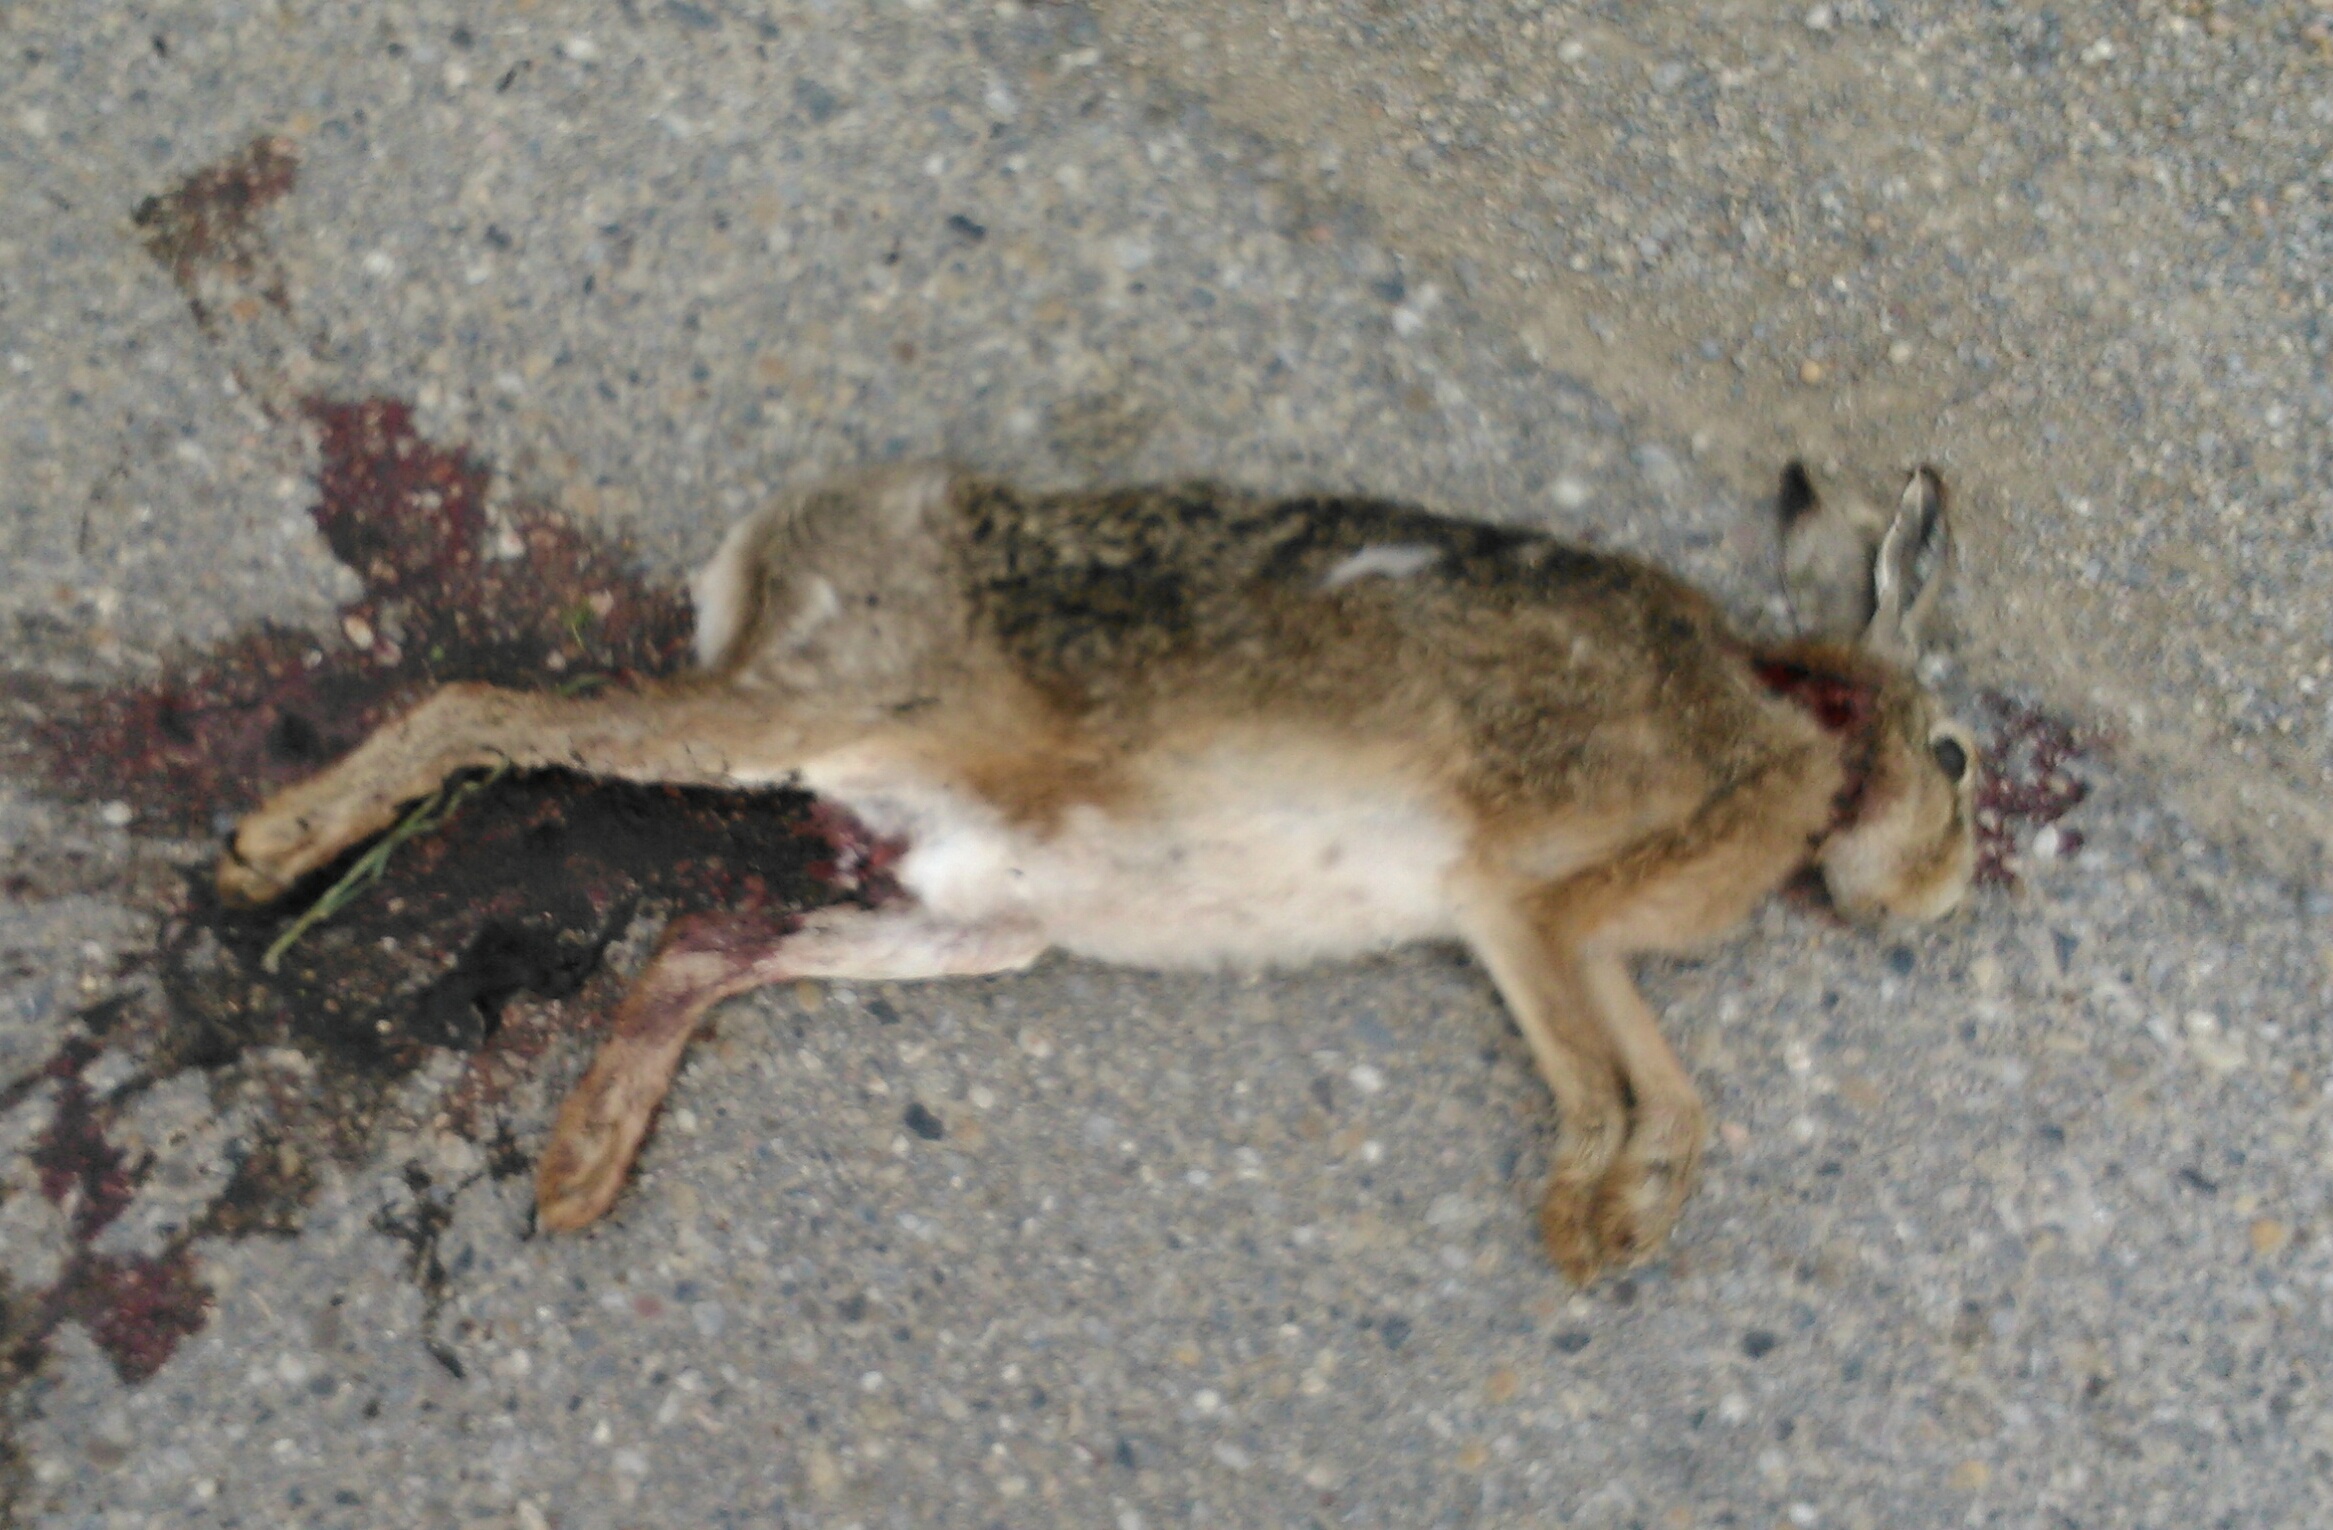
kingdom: Animalia
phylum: Chordata
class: Mammalia
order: Lagomorpha
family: Leporidae
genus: Lepus
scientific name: Lepus europaeus
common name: European hare
